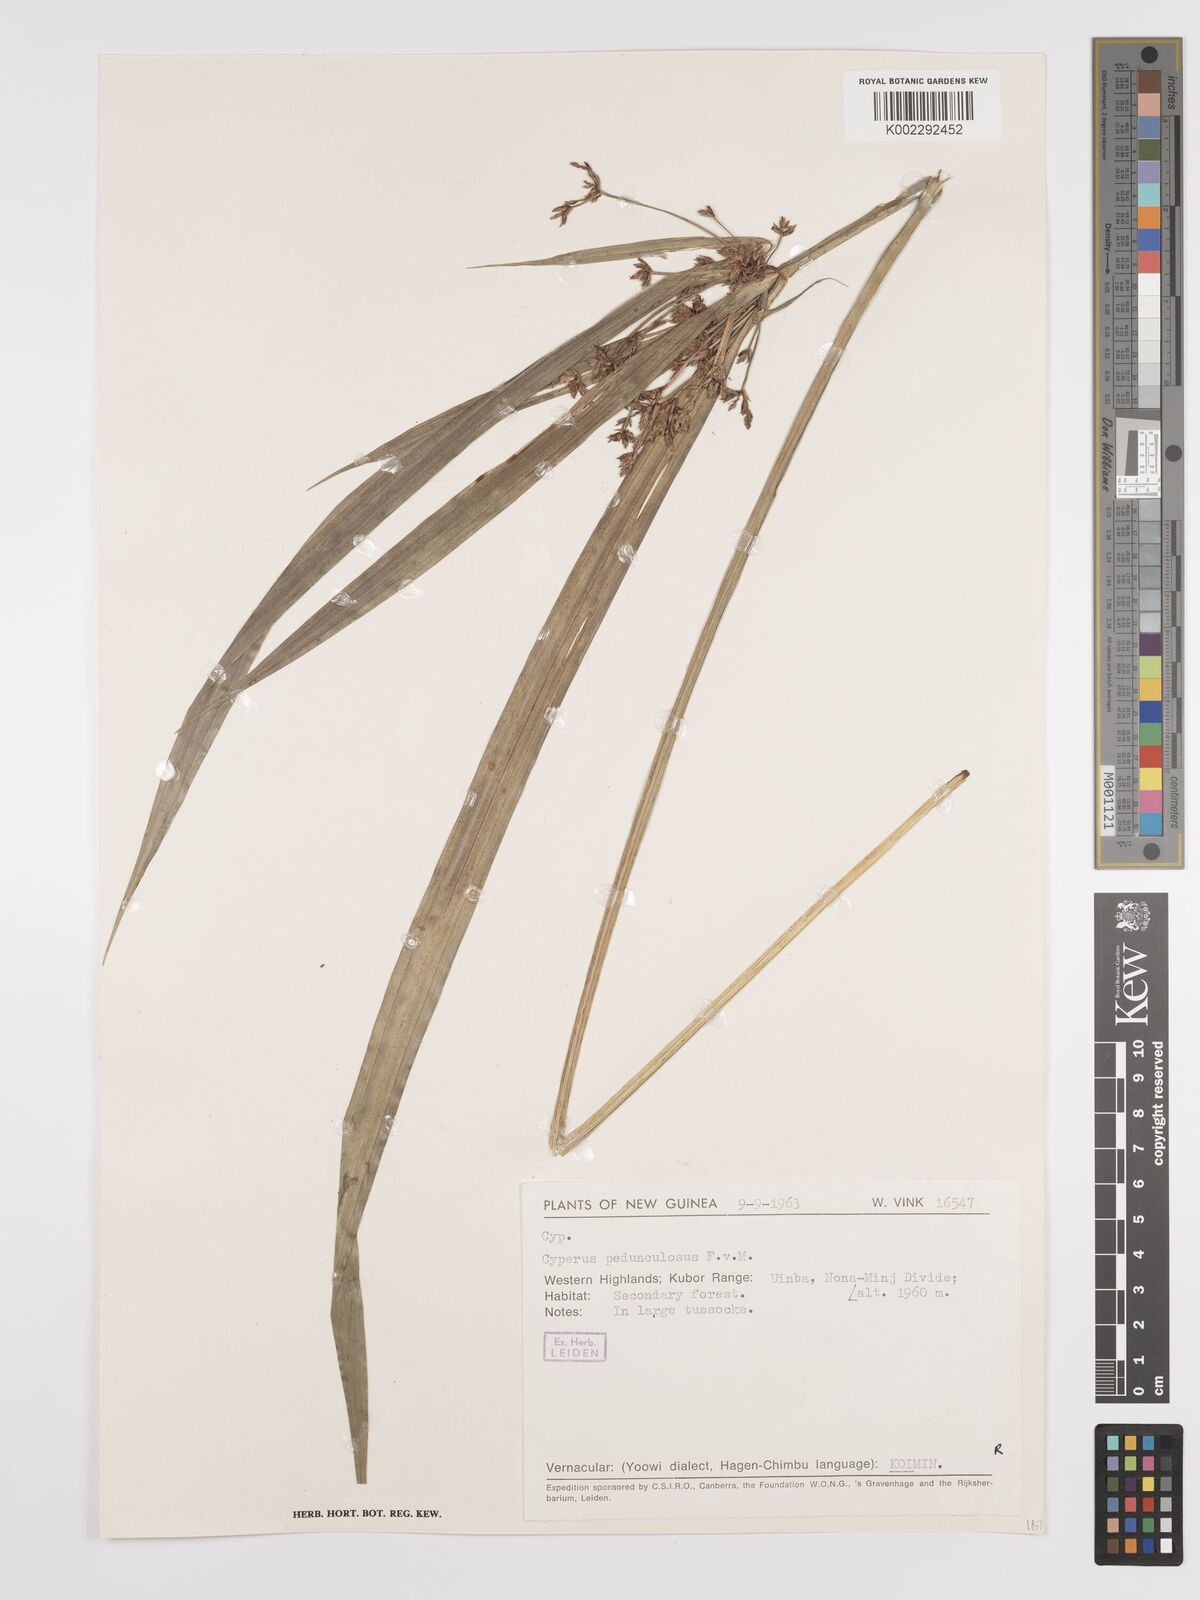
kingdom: Plantae
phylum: Tracheophyta
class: Liliopsida
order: Poales
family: Cyperaceae
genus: Cyperus
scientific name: Cyperus pedunculosus
